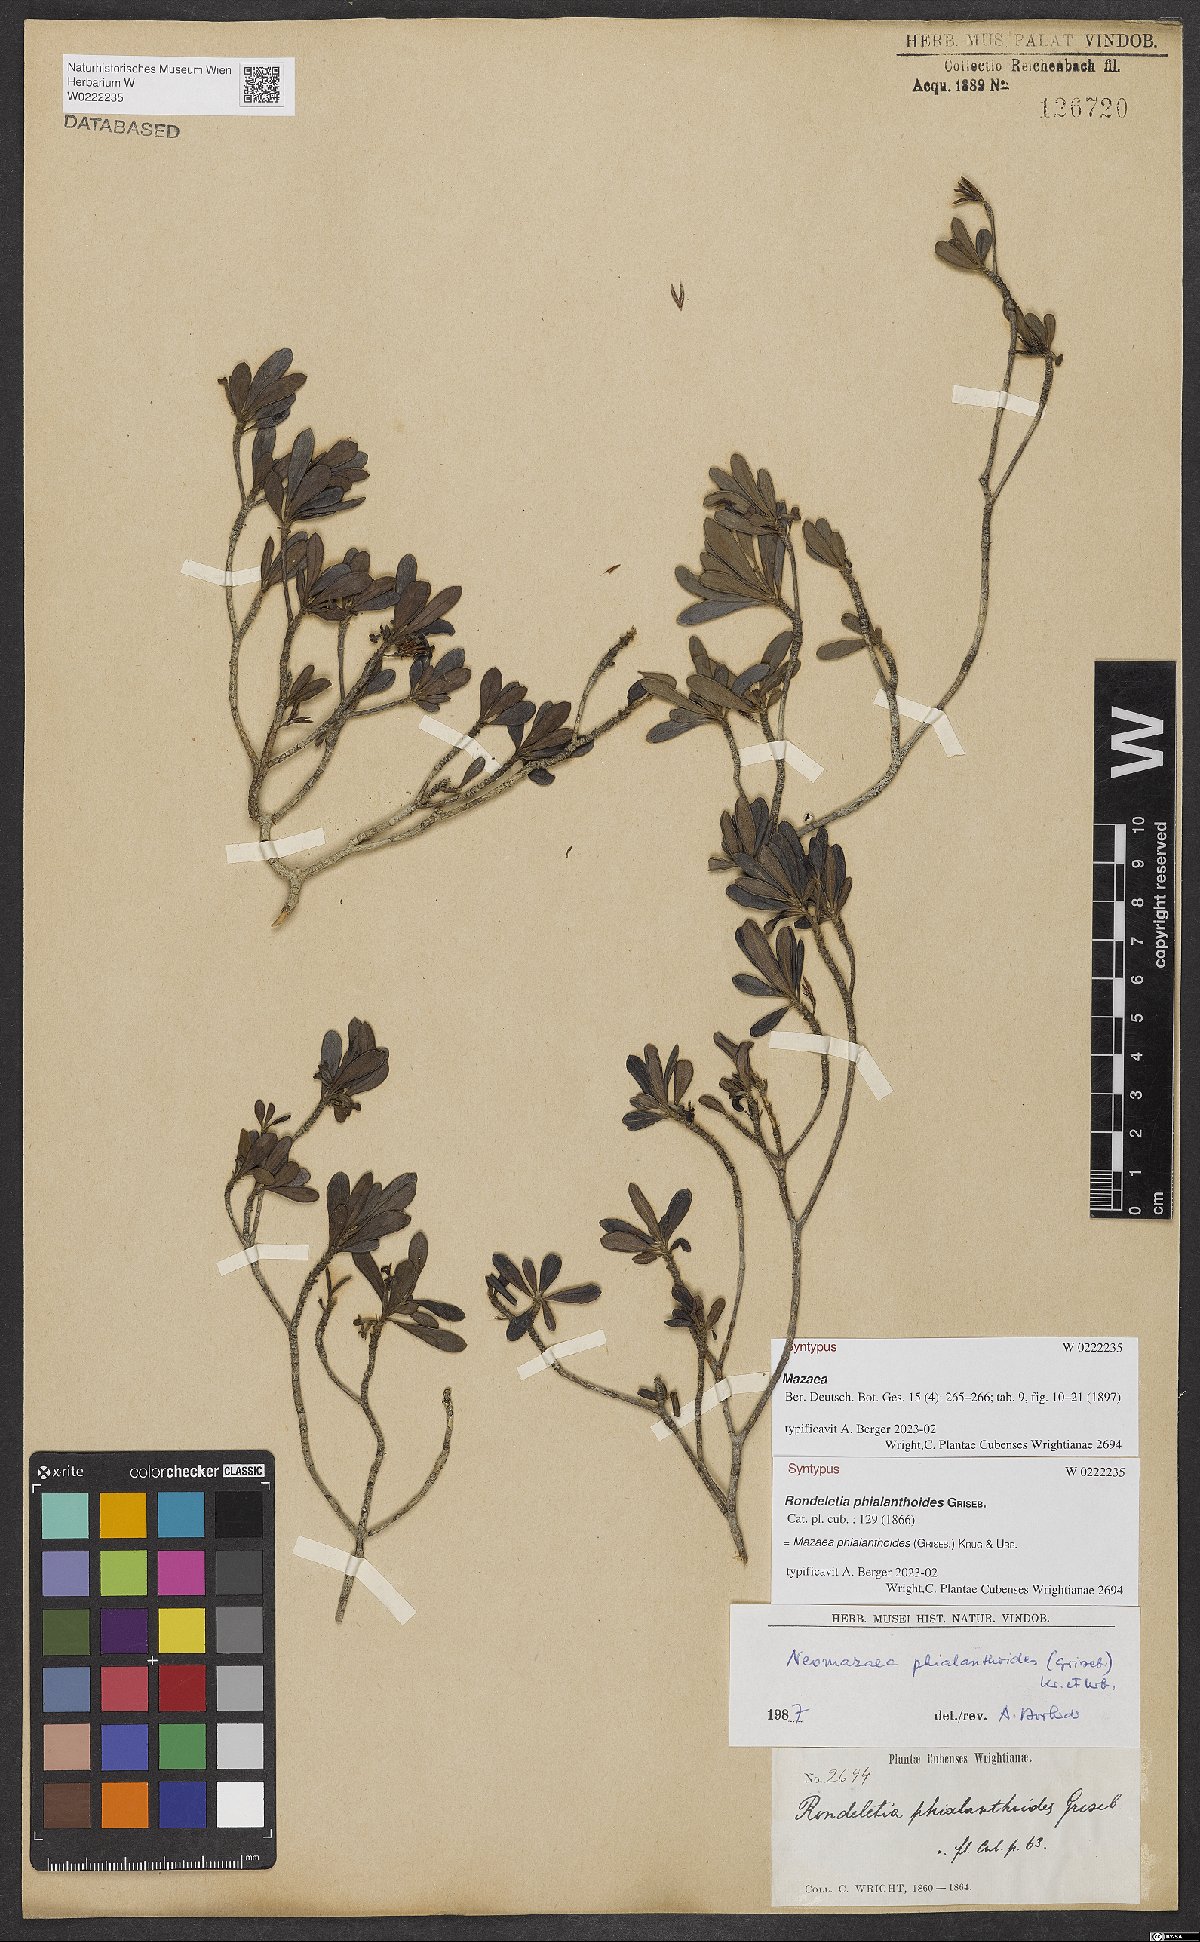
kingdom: Plantae
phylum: Tracheophyta
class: Magnoliopsida
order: Gentianales
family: Rubiaceae
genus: Mazaea
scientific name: Mazaea phialanthoides
